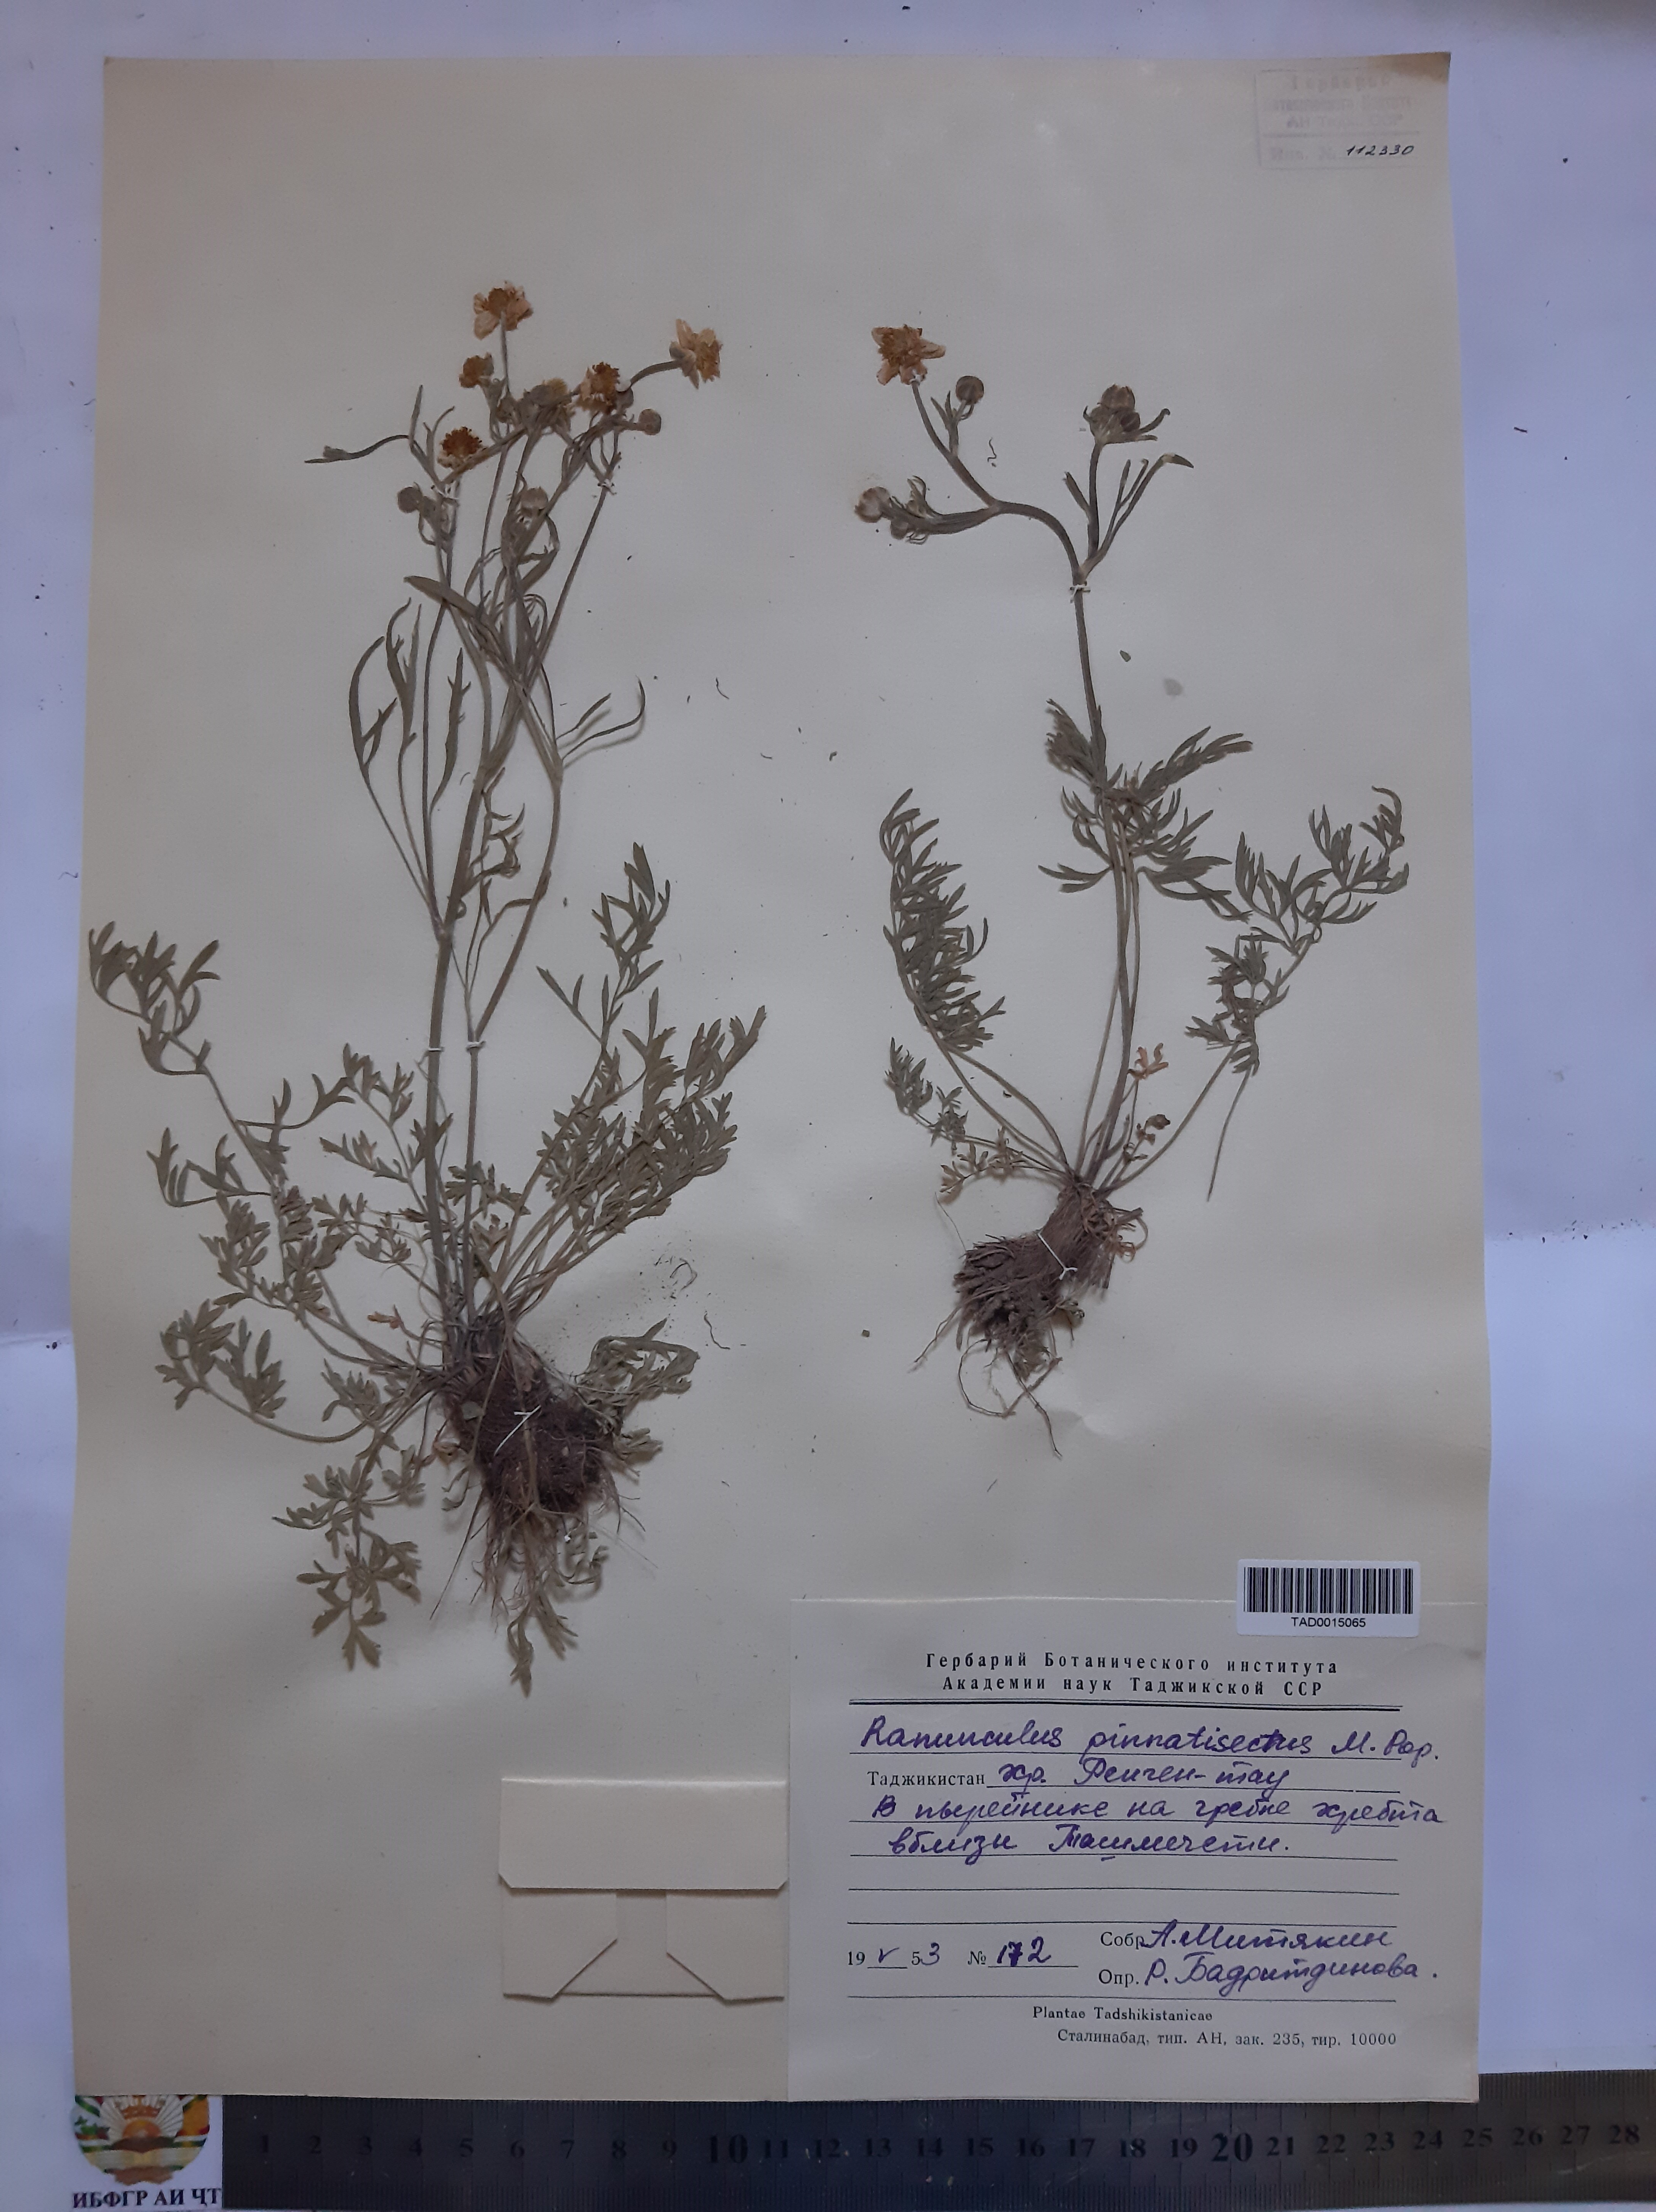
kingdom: Plantae
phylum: Tracheophyta
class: Magnoliopsida
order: Ranunculales
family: Ranunculaceae
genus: Ranunculus
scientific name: Ranunculus pinnatisectus
